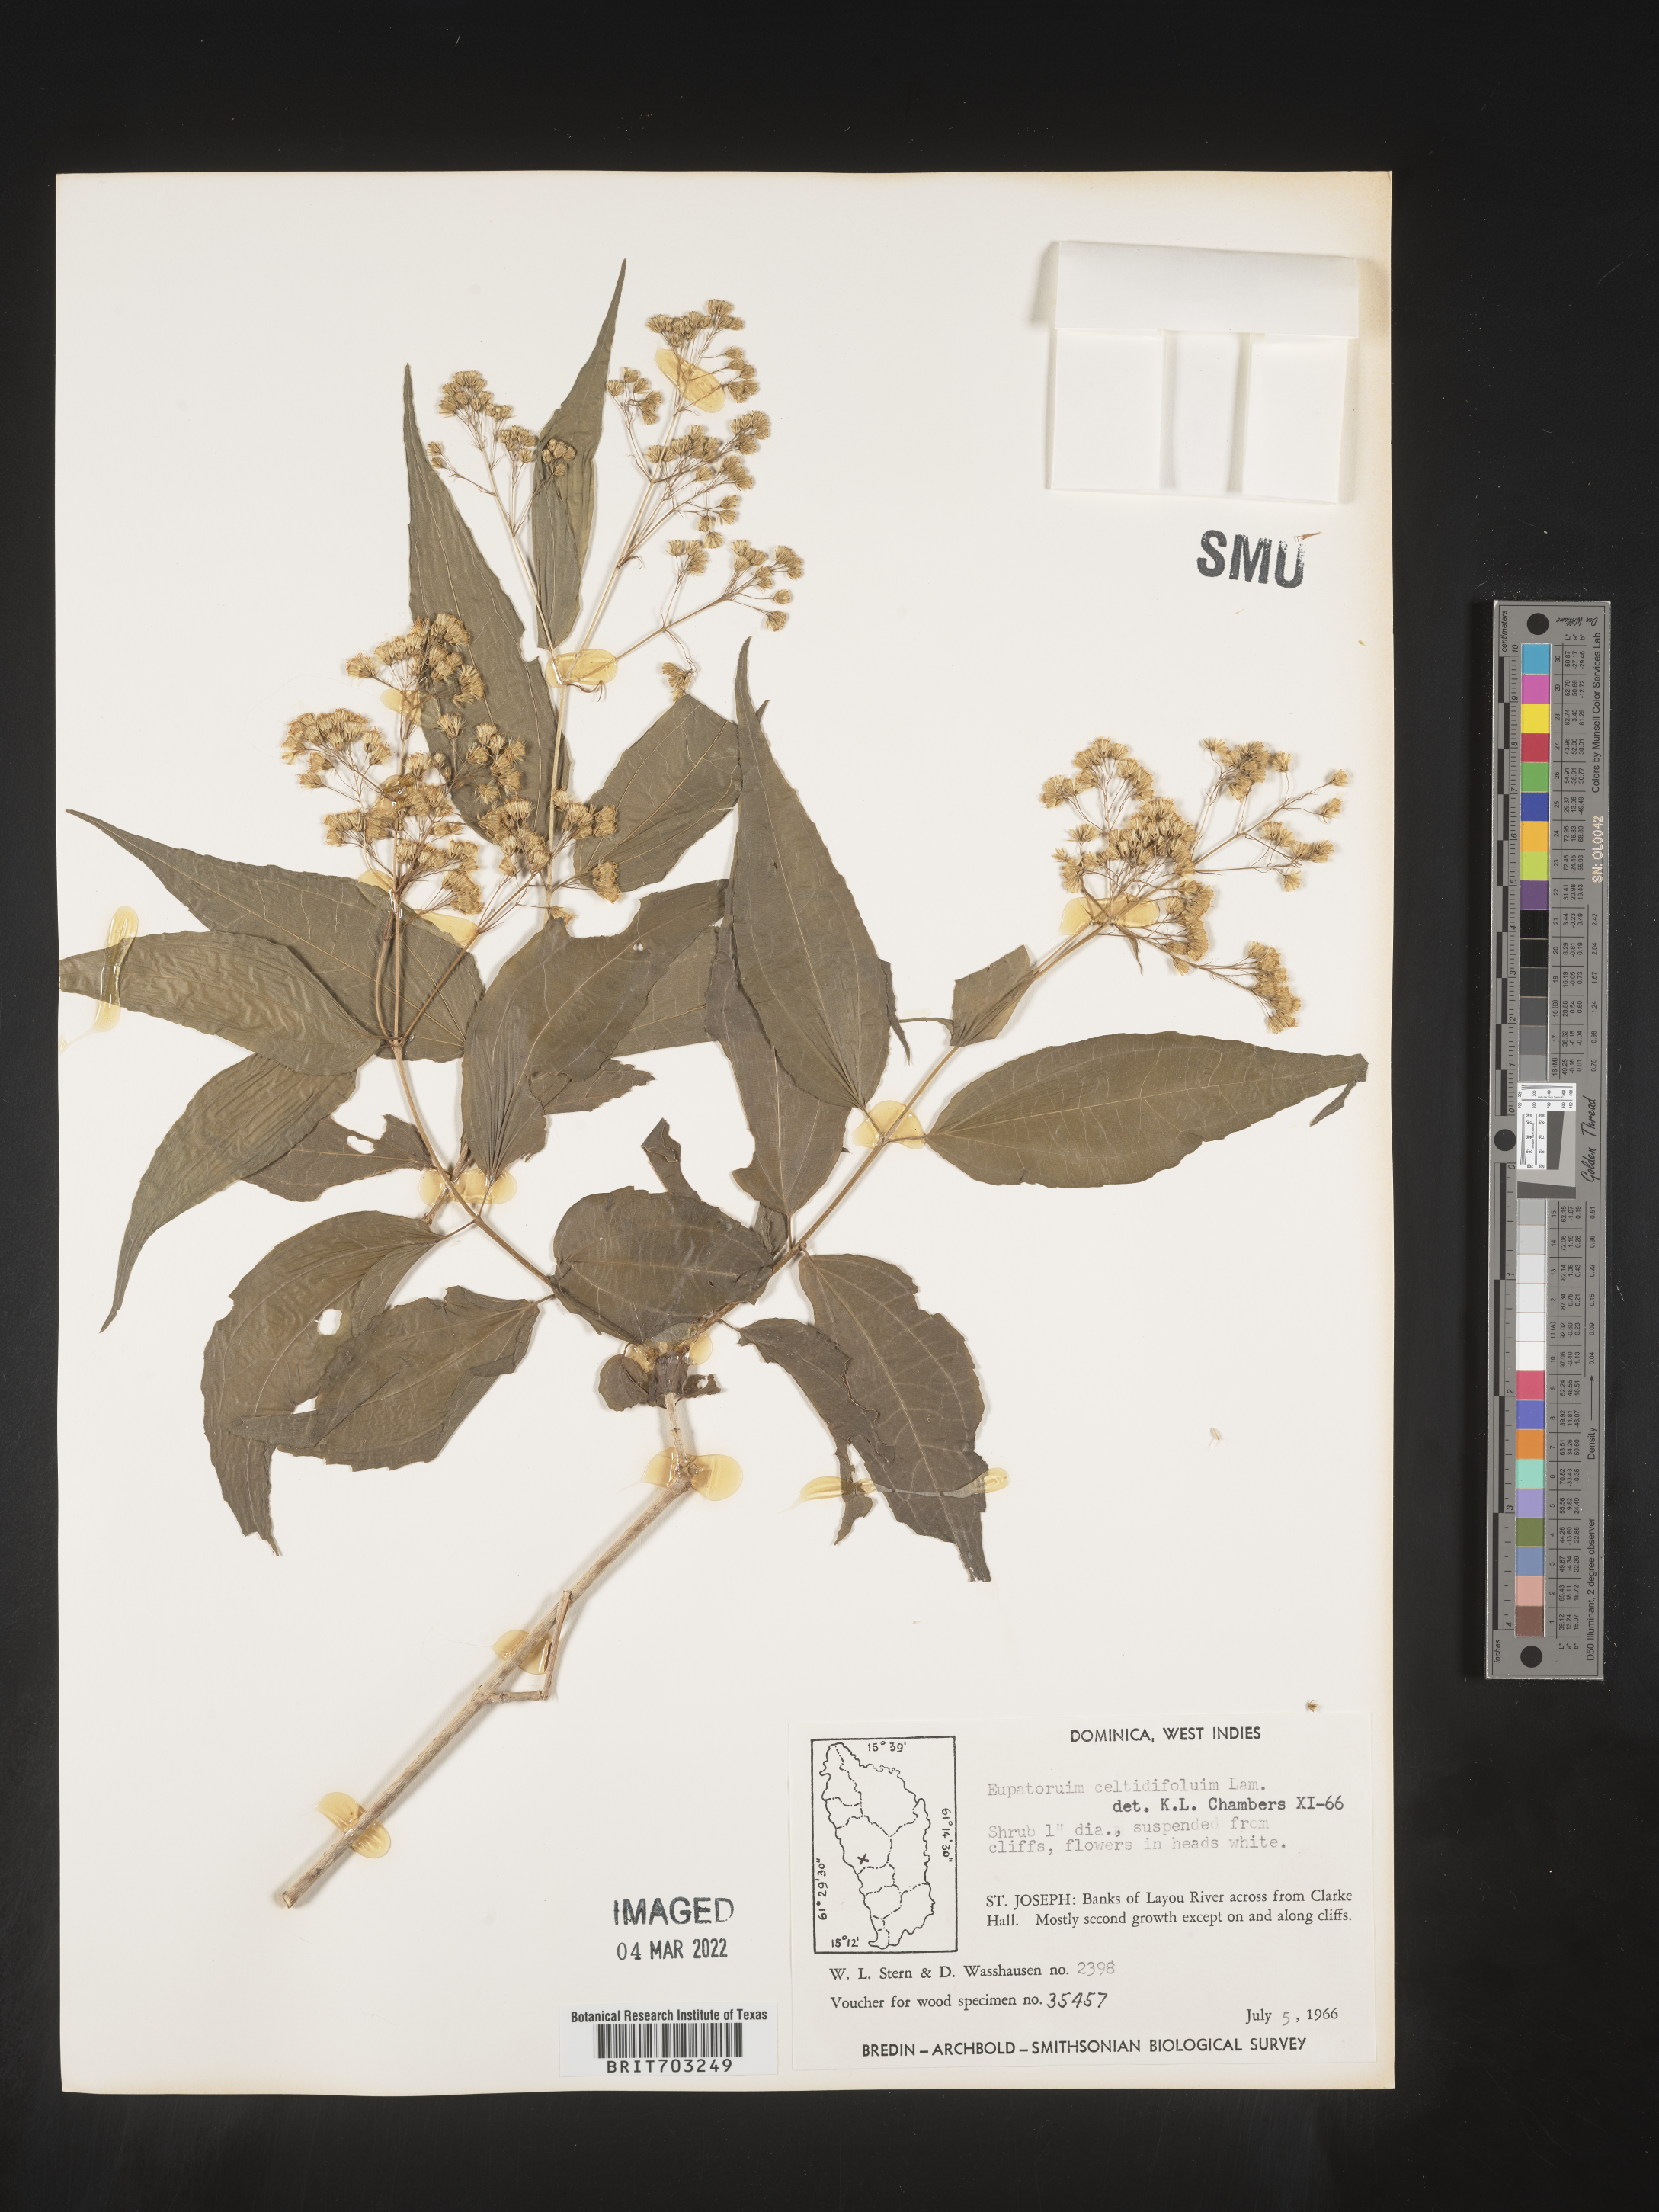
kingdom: Plantae
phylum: Tracheophyta
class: Magnoliopsida
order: Asterales
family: Asteraceae
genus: Eupatorium
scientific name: Eupatorium
